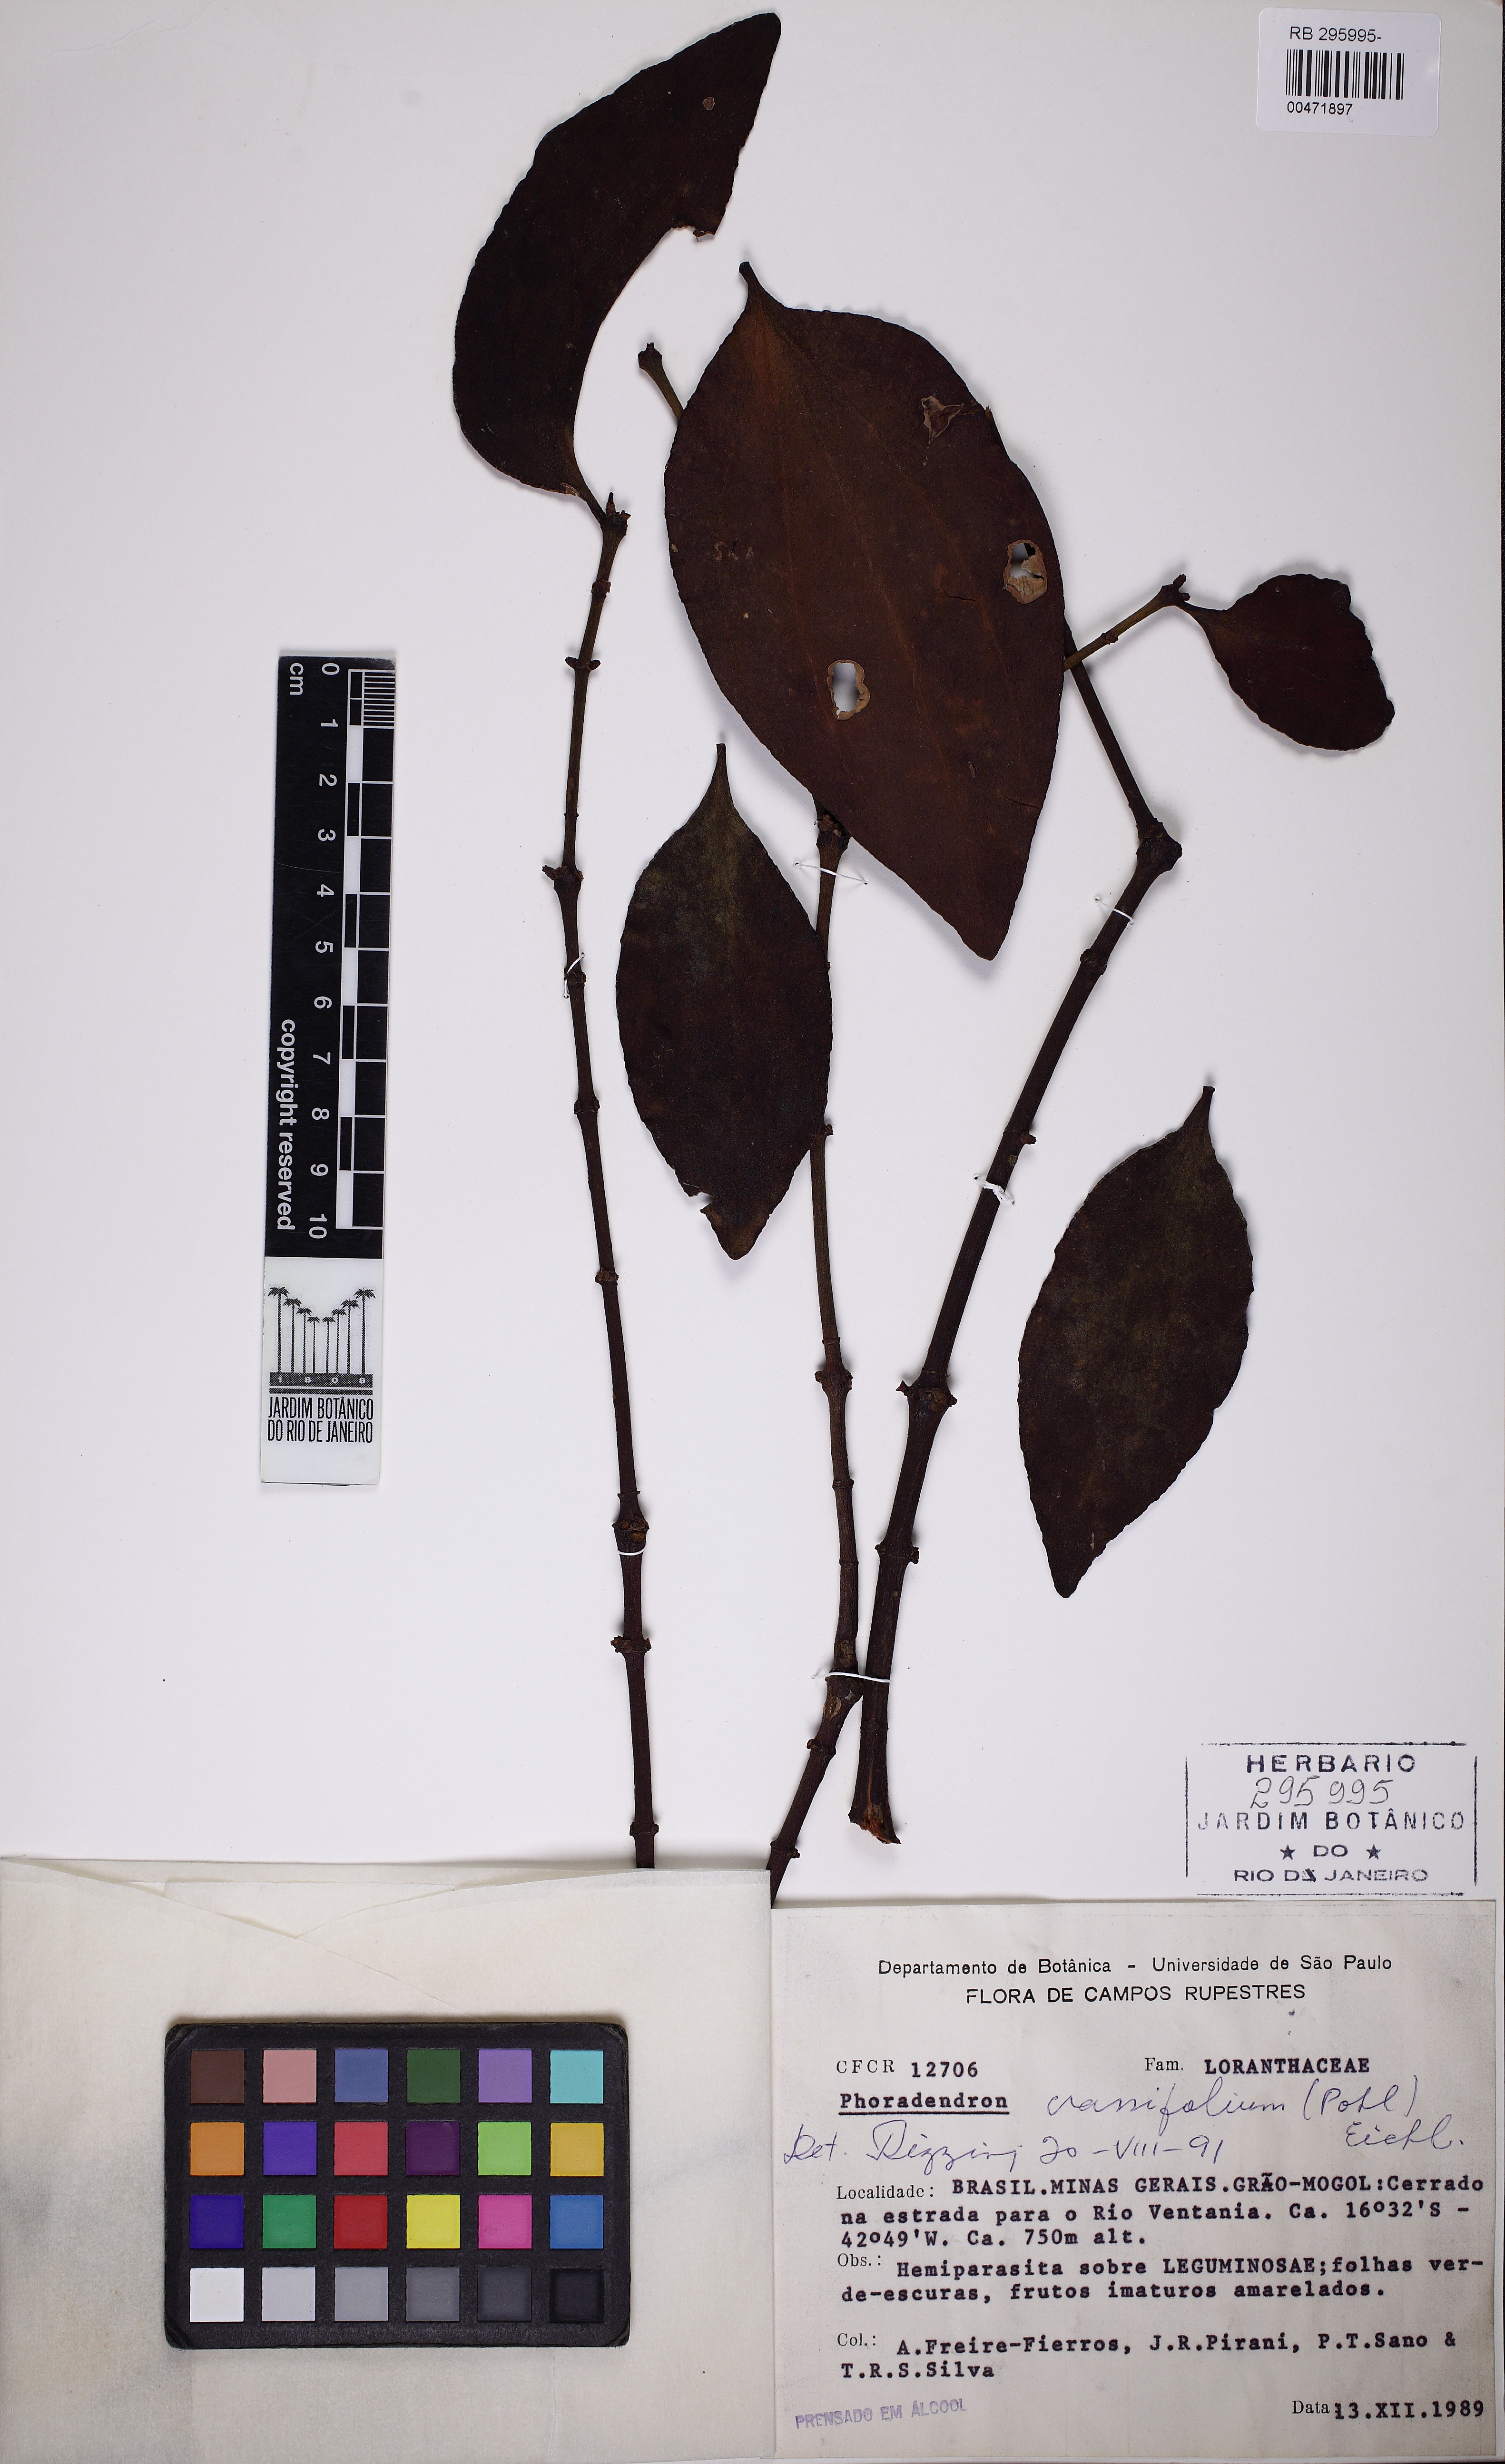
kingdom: Plantae
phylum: Tracheophyta
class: Magnoliopsida
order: Santalales
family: Viscaceae
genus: Phoradendron
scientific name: Phoradendron crassifolium
